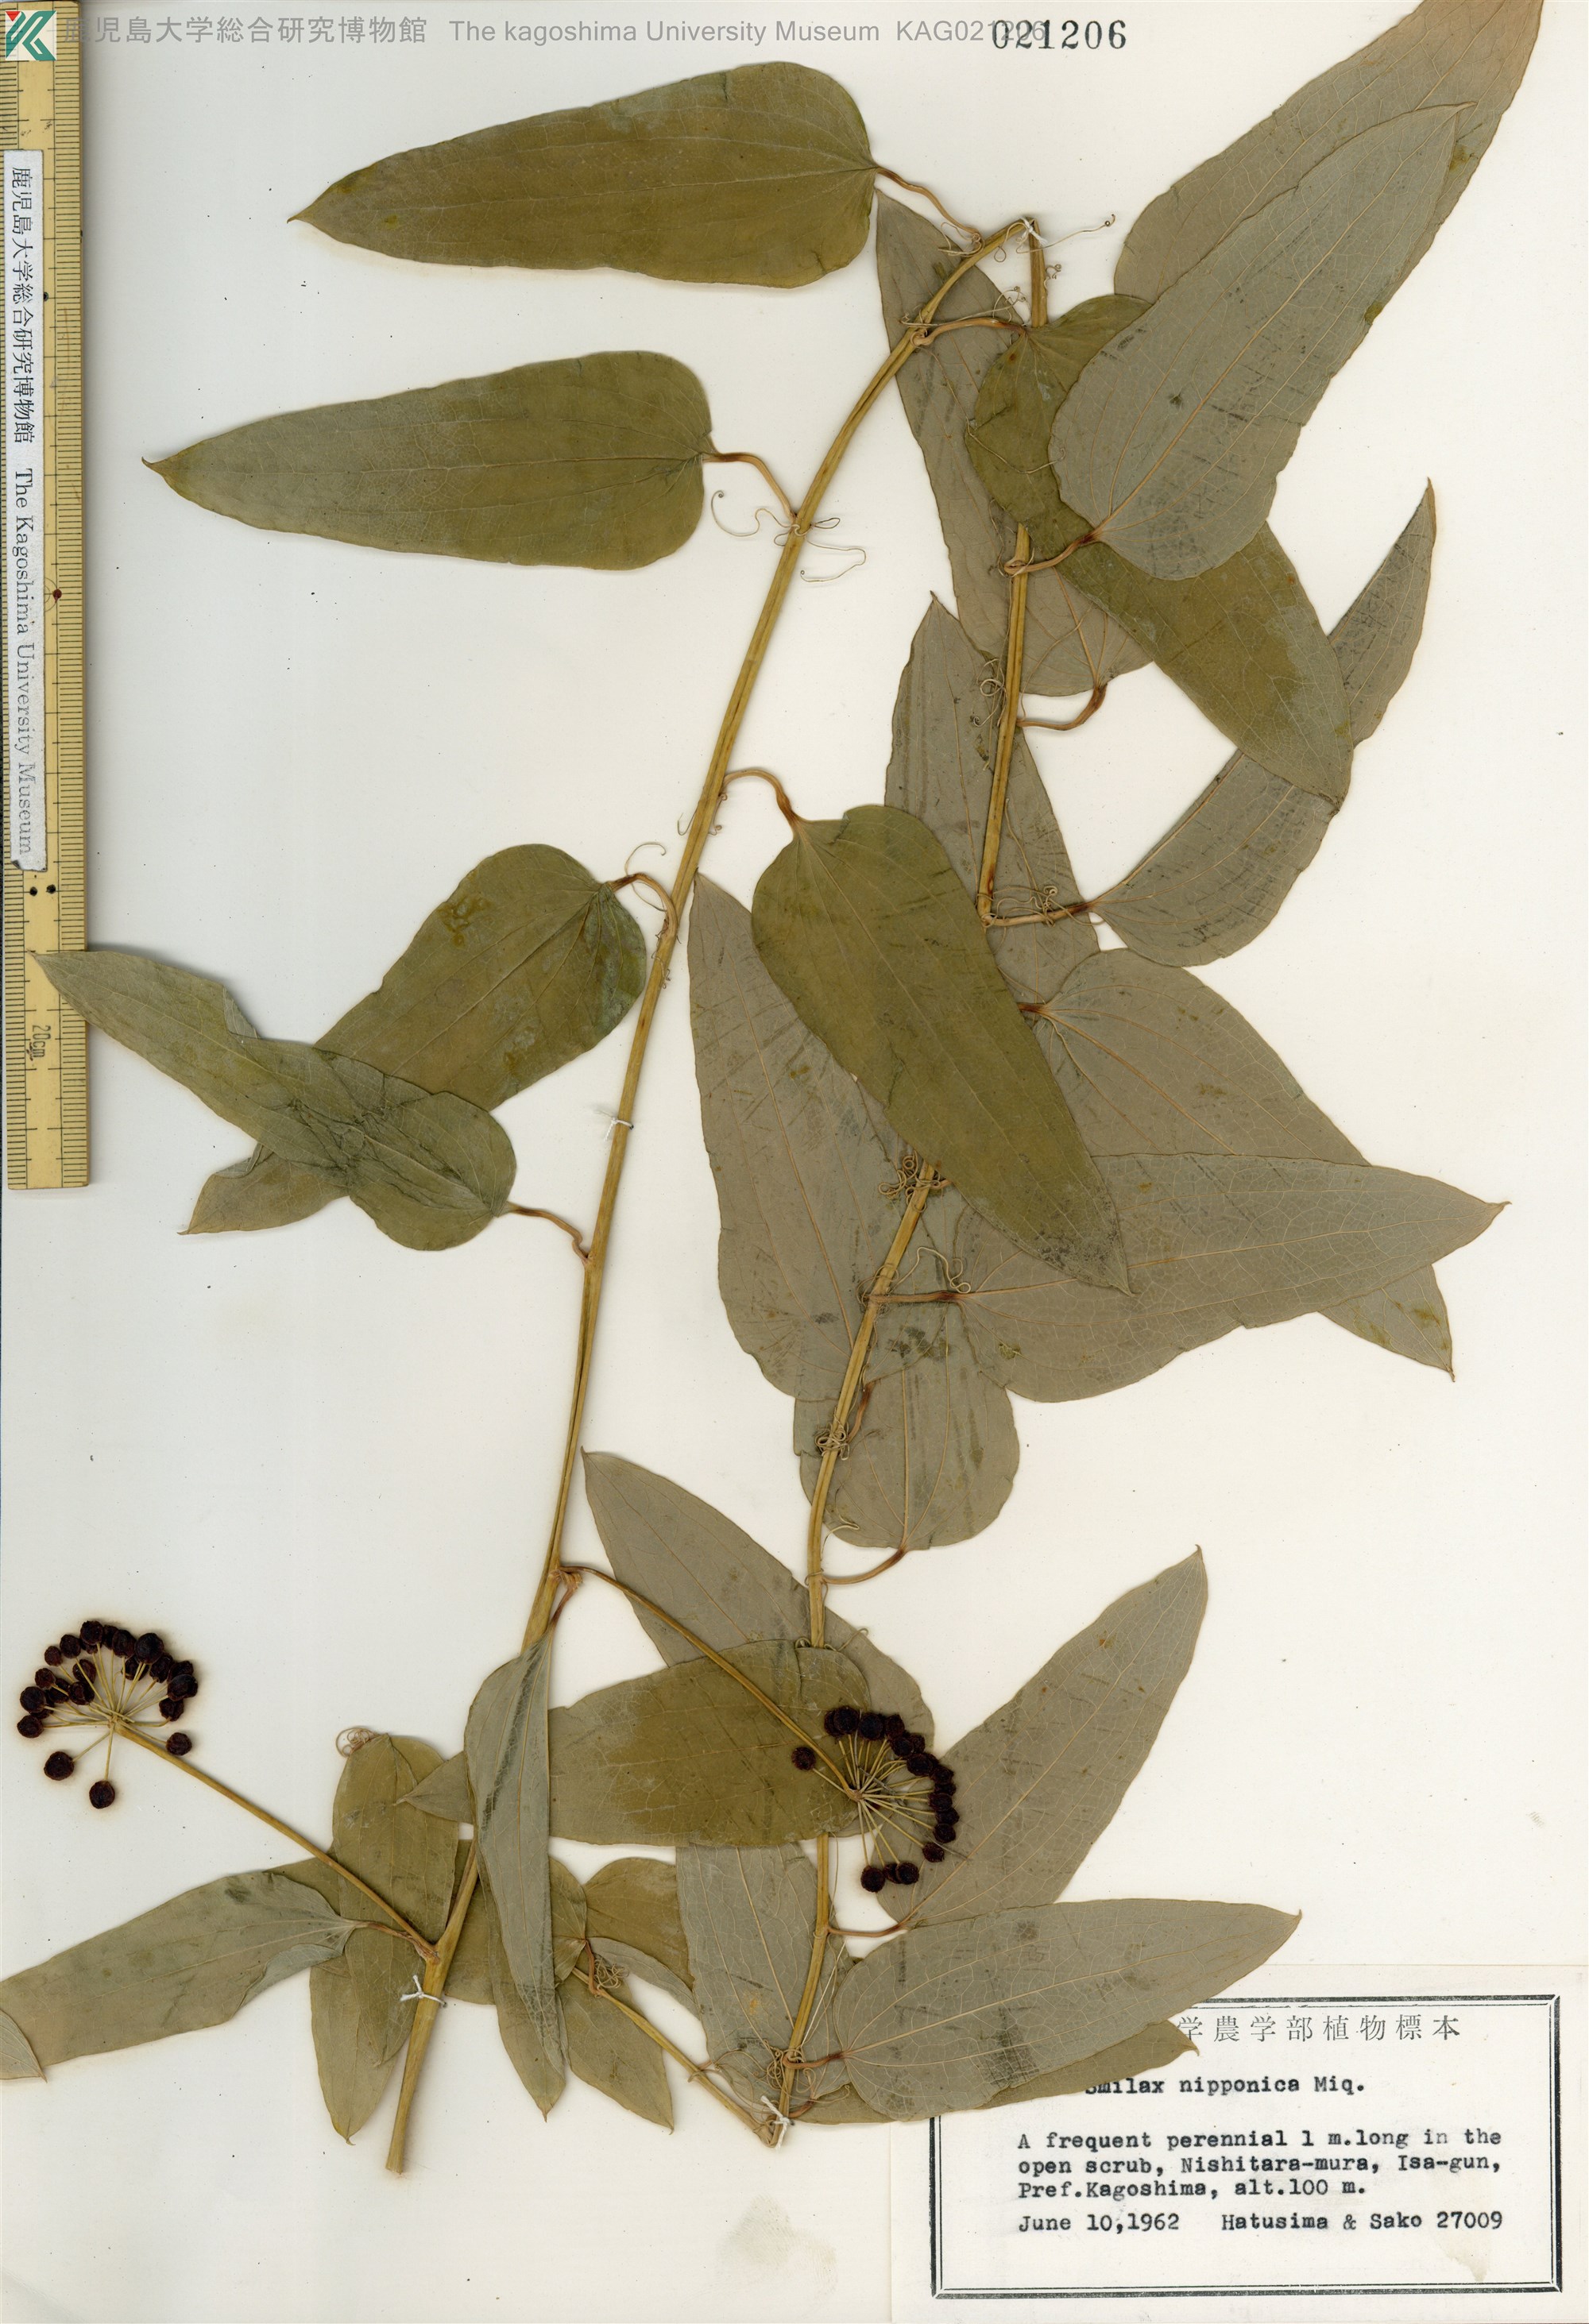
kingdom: Plantae
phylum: Tracheophyta
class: Liliopsida
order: Liliales
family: Smilacaceae
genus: Smilax
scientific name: Smilax nipponica
